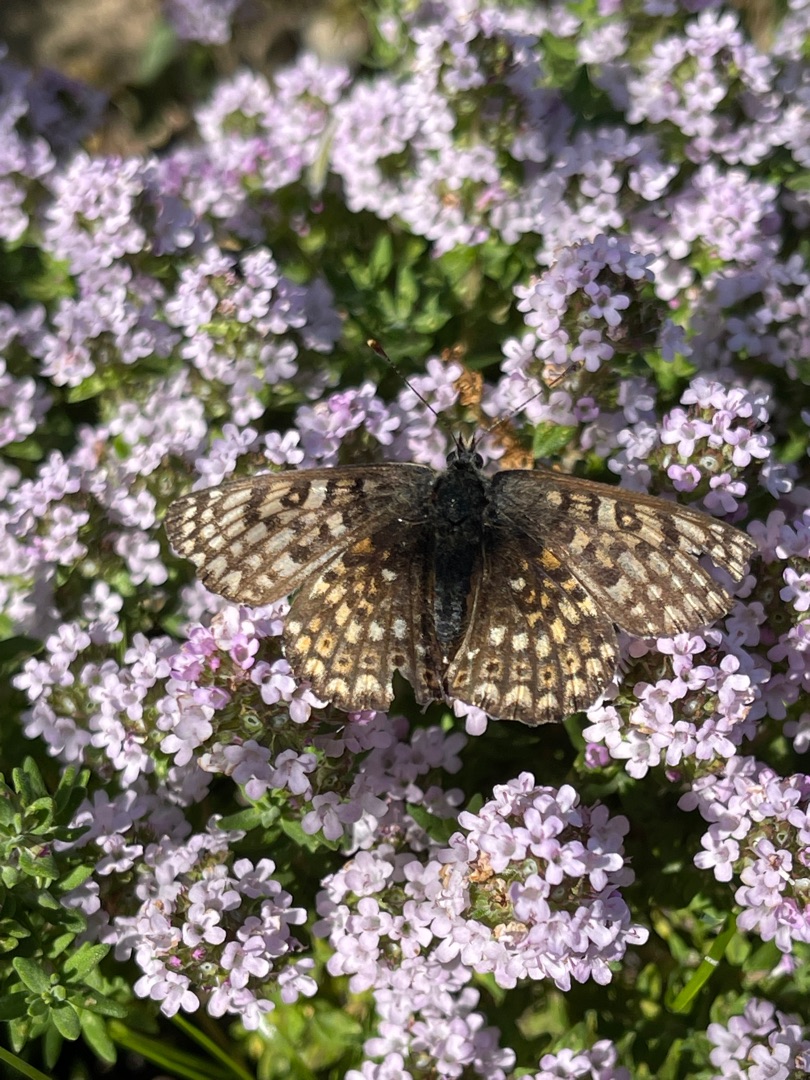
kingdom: Animalia
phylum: Arthropoda
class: Insecta
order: Lepidoptera
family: Nymphalidae
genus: Melitaea
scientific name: Melitaea cinxia
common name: Okkergul pletvinge
